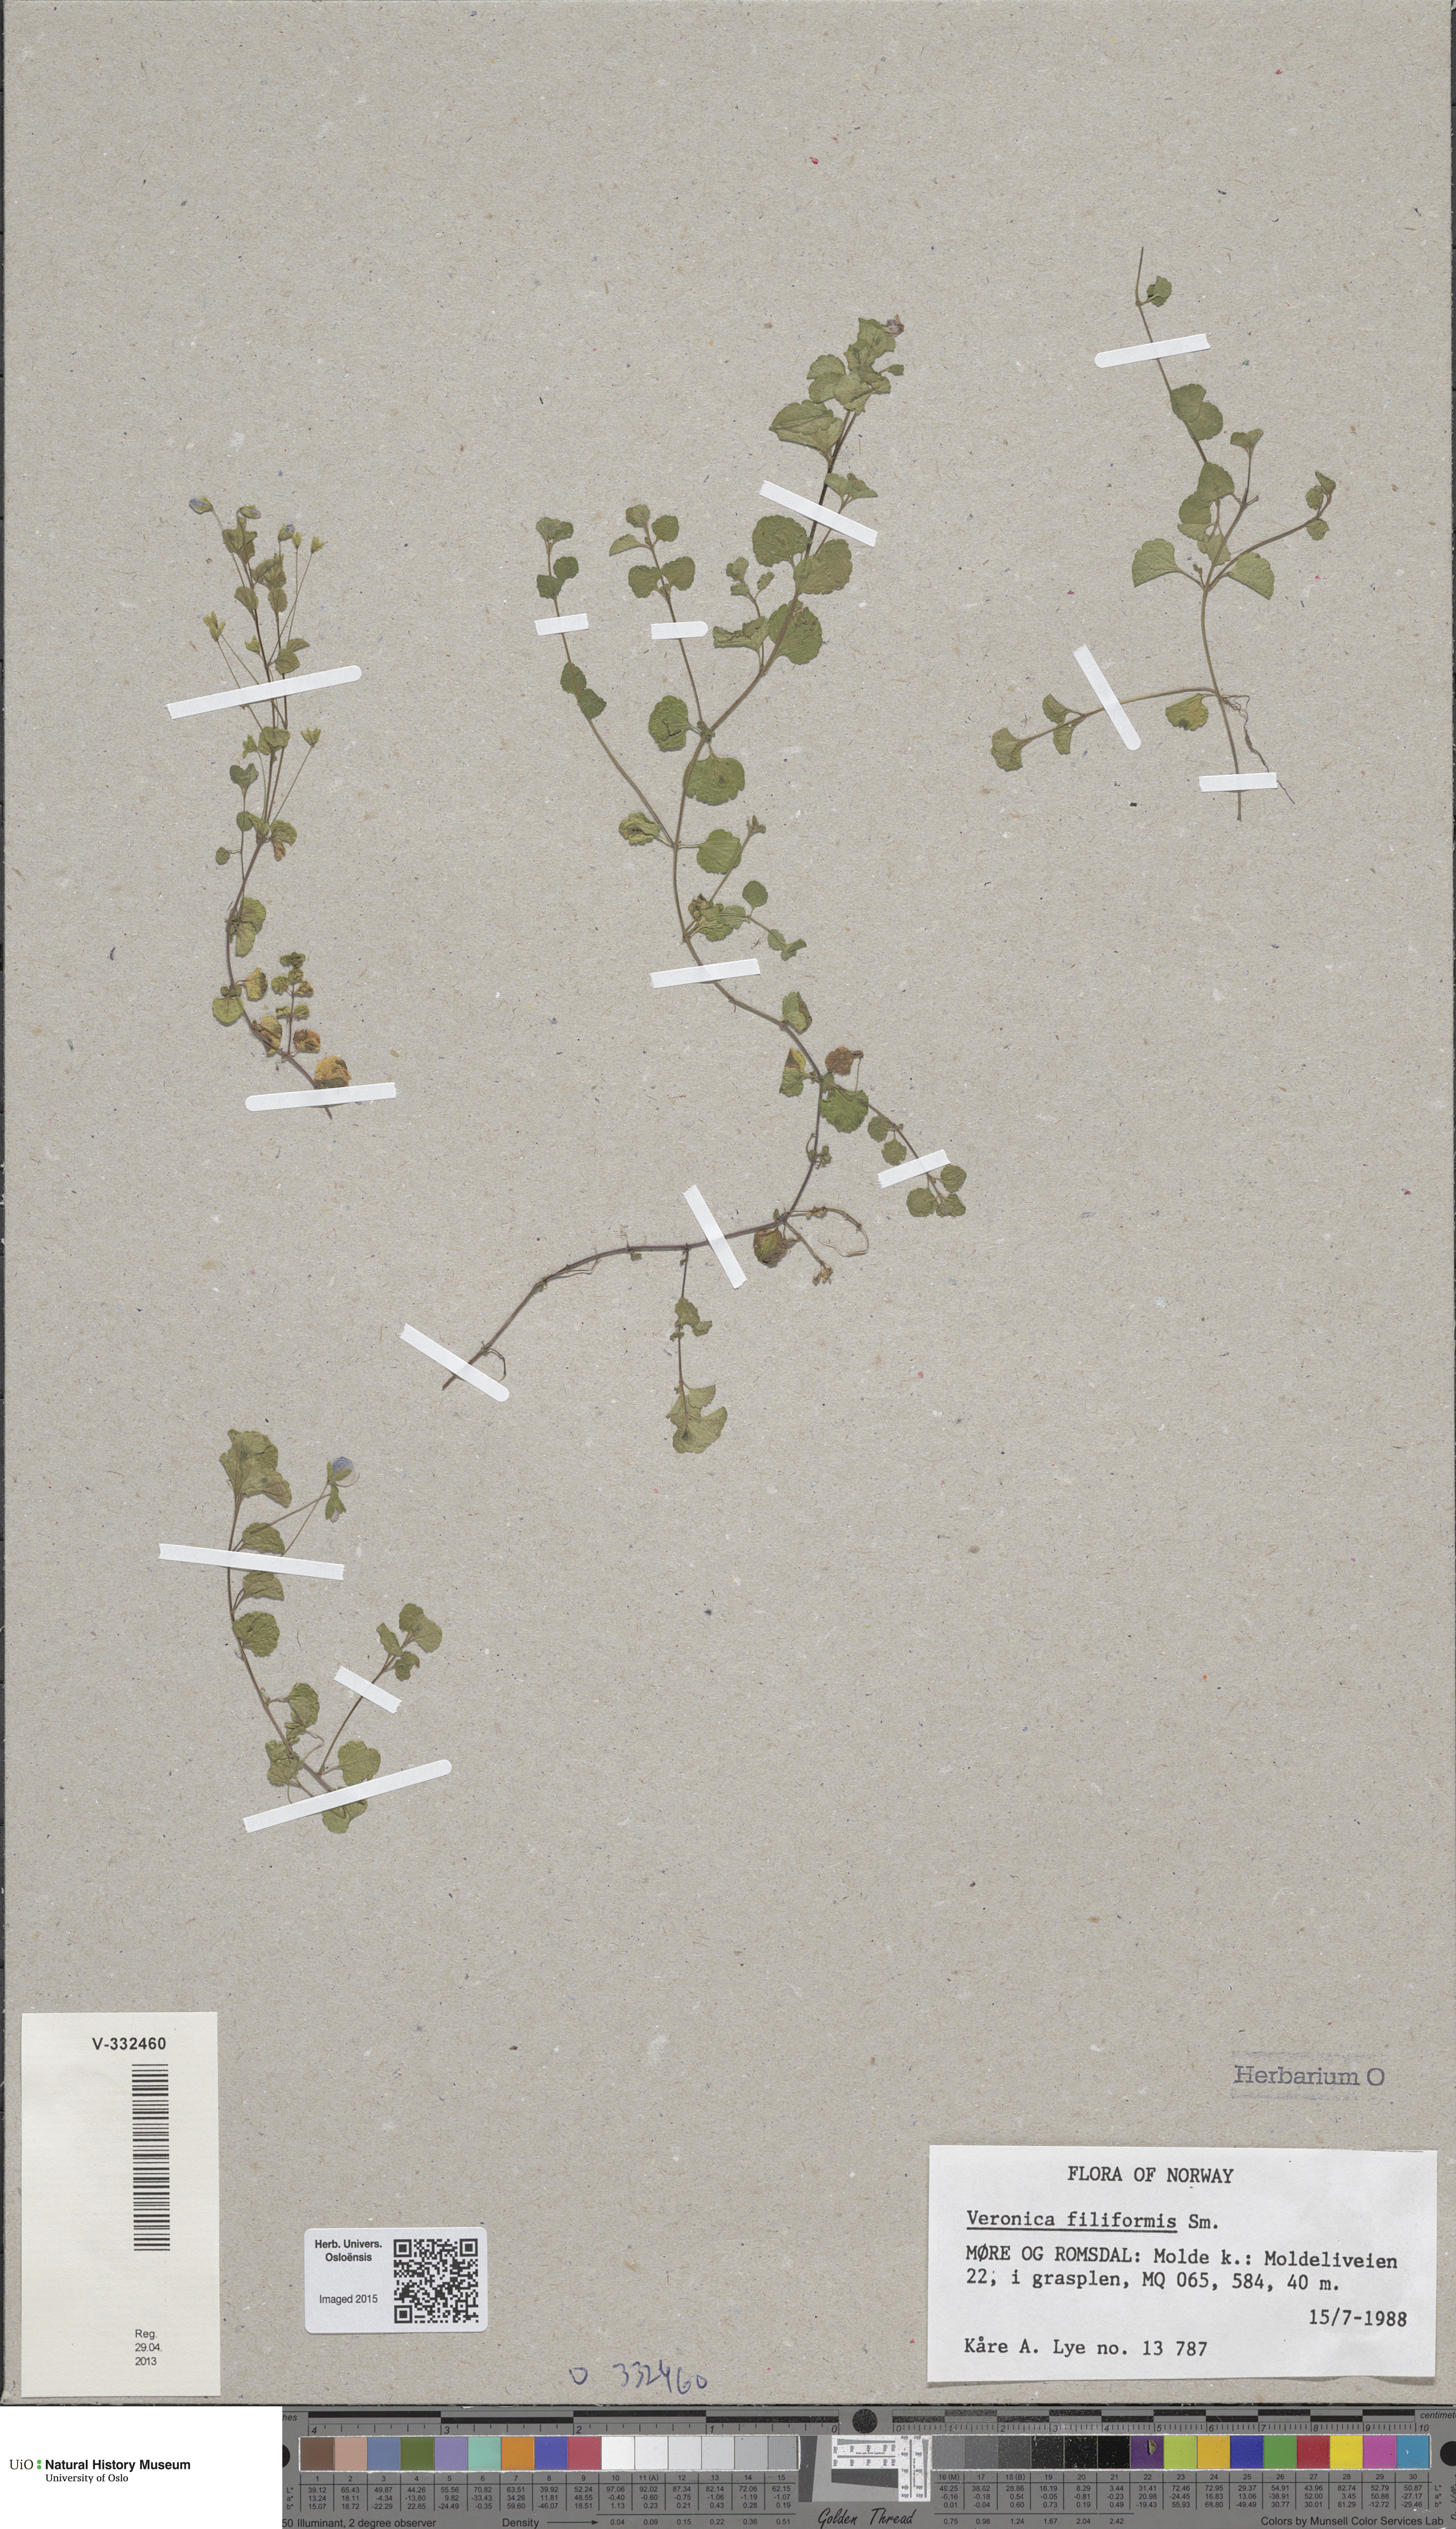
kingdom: Plantae
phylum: Tracheophyta
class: Magnoliopsida
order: Lamiales
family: Plantaginaceae
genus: Veronica
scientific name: Veronica filiformis
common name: Slender speedwell
